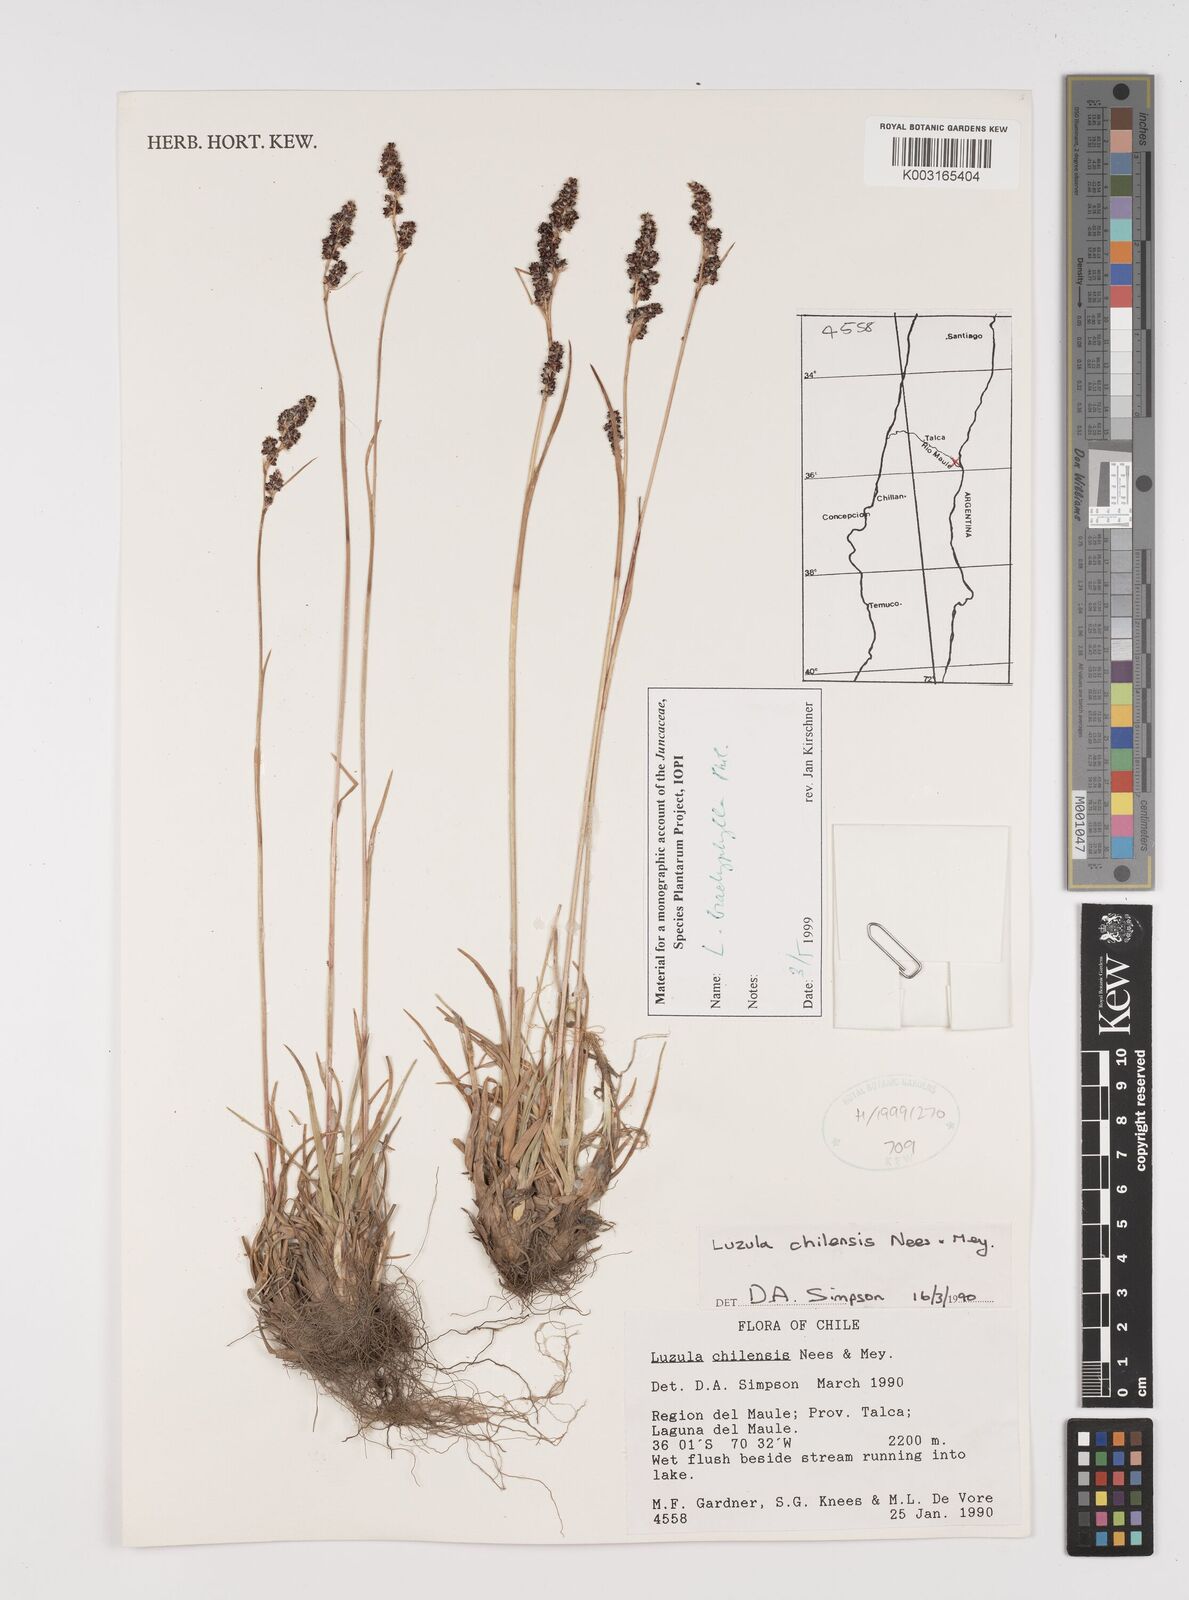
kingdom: Plantae
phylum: Tracheophyta
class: Liliopsida
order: Poales
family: Juncaceae
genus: Luzula
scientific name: Luzula chilensis
